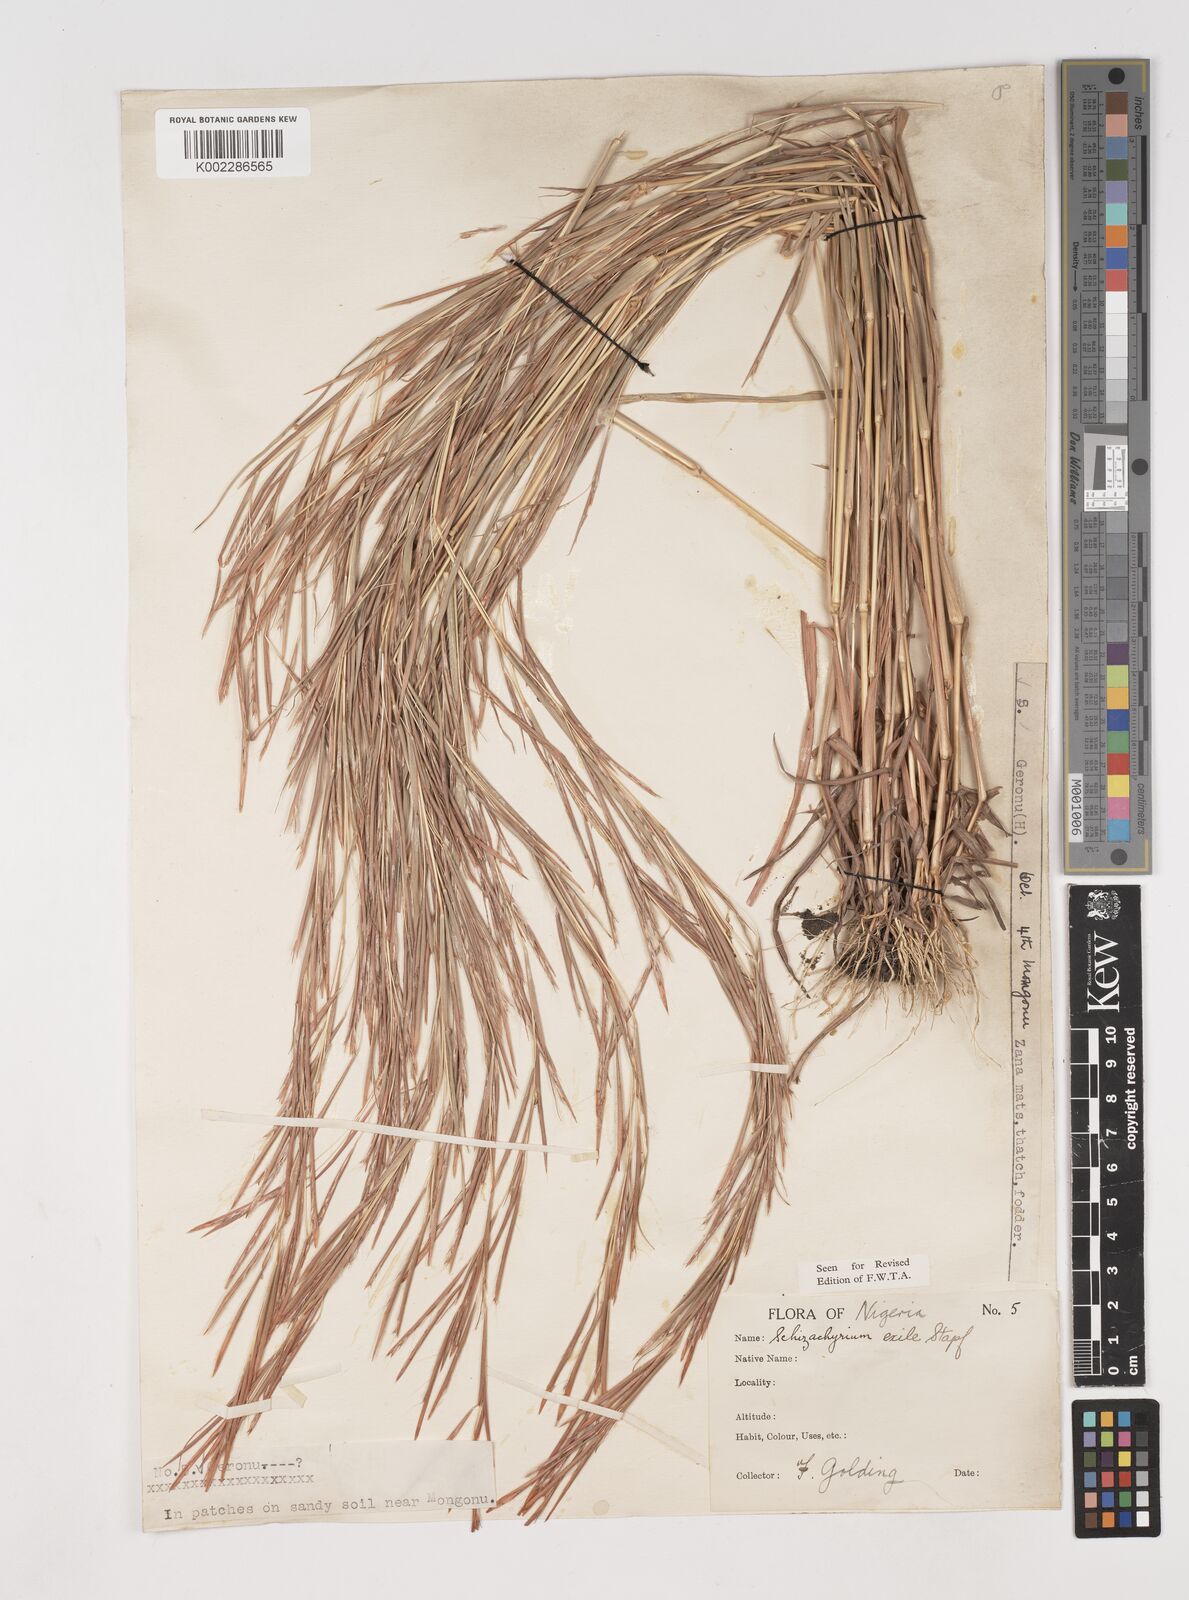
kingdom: Plantae
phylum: Tracheophyta
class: Liliopsida
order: Poales
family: Poaceae
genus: Schizachyrium
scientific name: Schizachyrium exile
